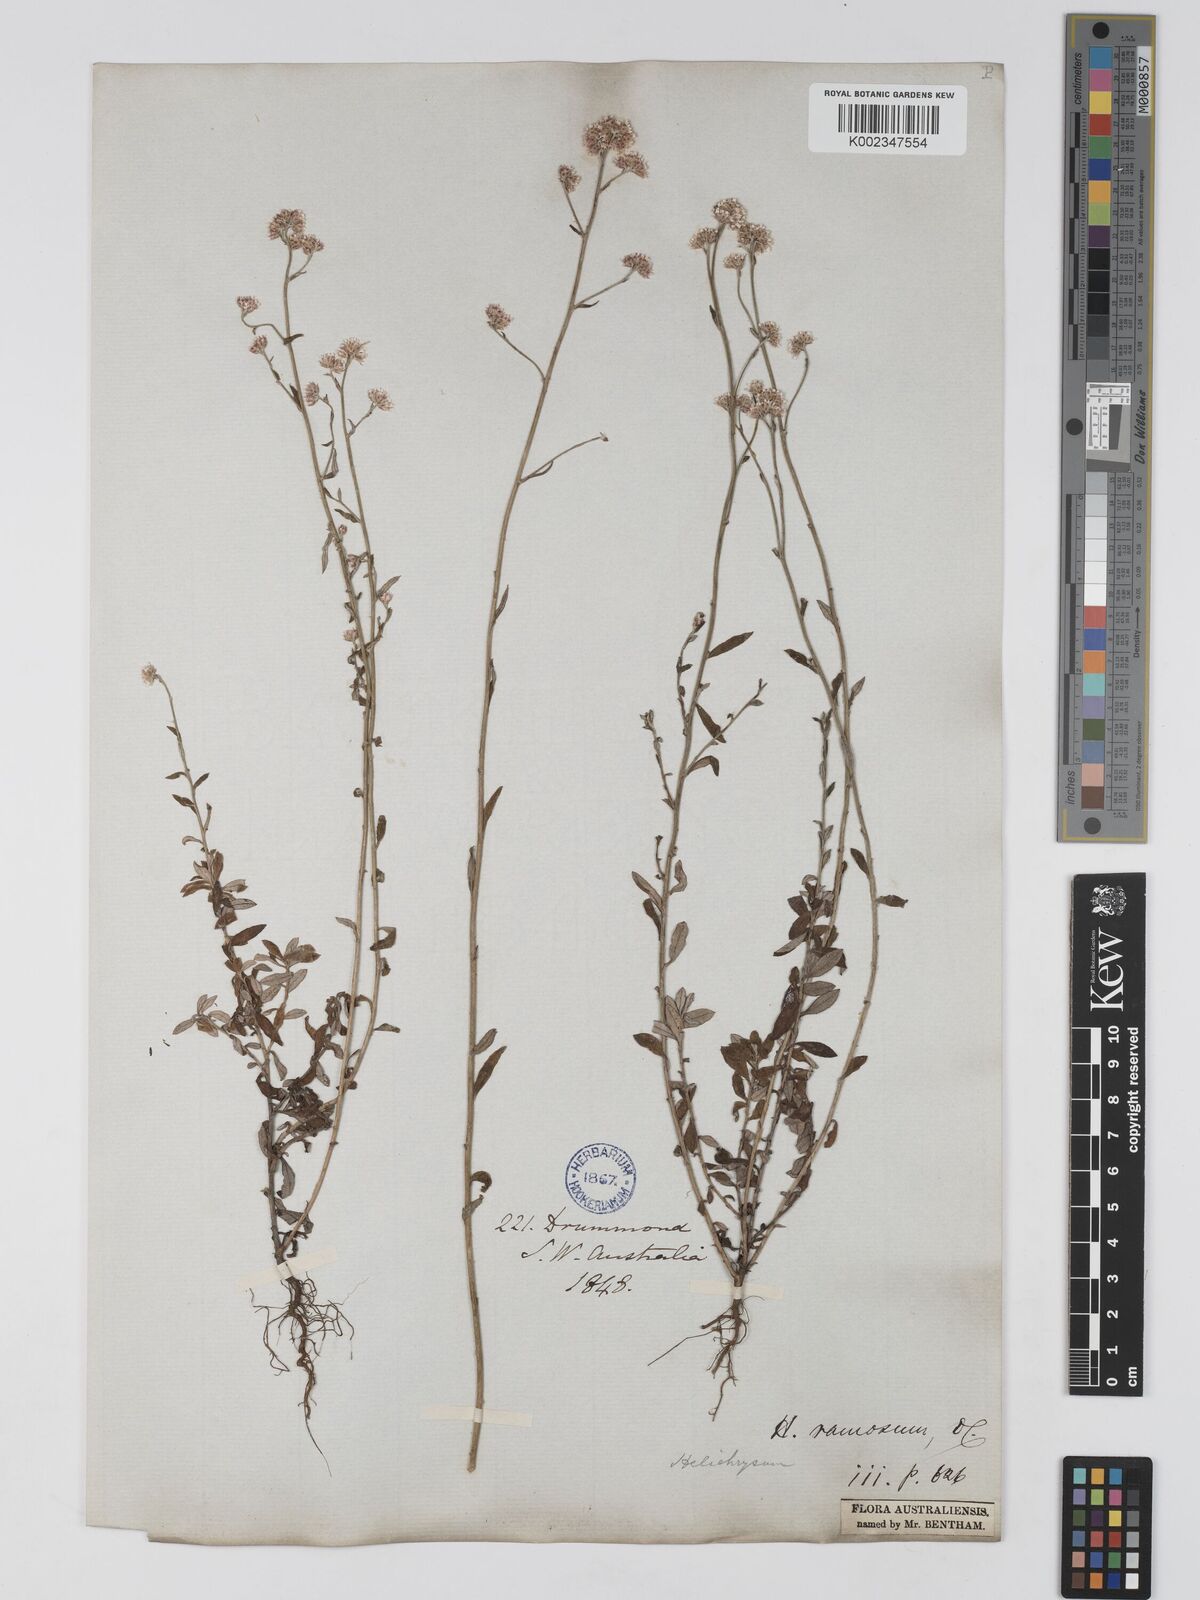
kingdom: Plantae
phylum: Tracheophyta
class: Magnoliopsida
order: Asterales
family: Asteraceae
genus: Pithocarpa
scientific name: Pithocarpa ramosa
